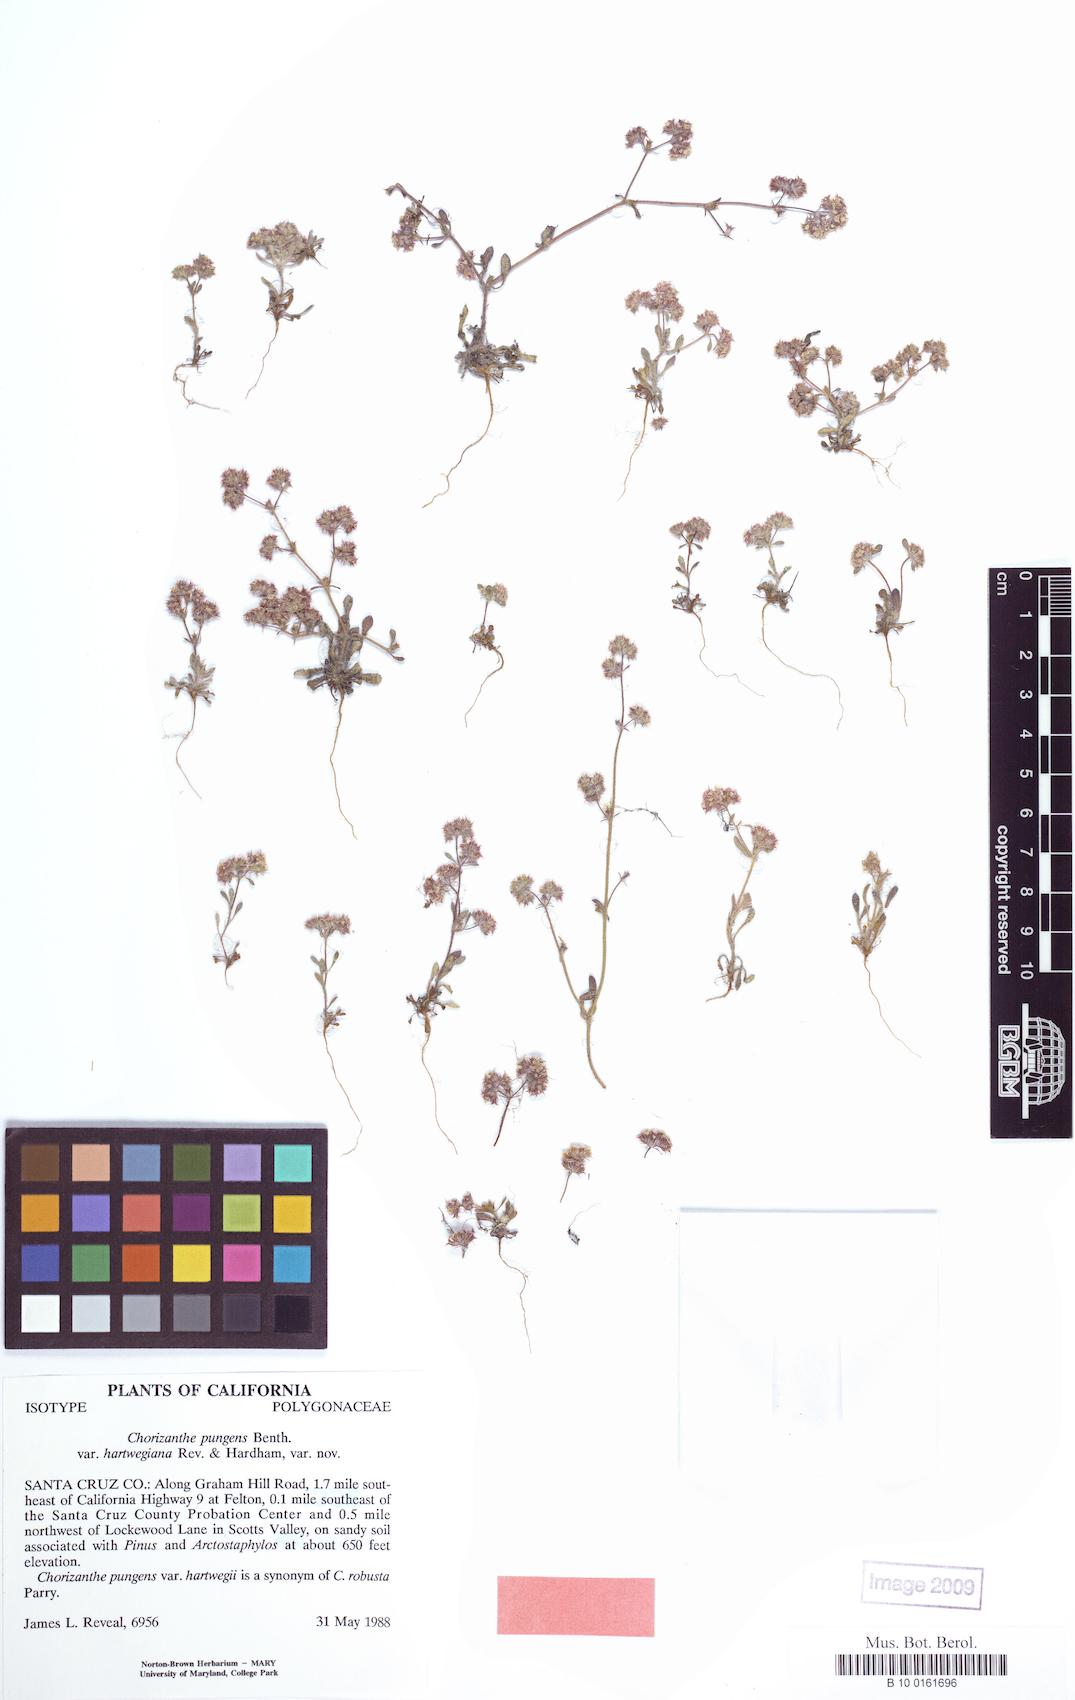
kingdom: Plantae
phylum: Tracheophyta
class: Magnoliopsida
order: Caryophyllales
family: Polygonaceae
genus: Chorizanthe
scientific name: Chorizanthe pungens
